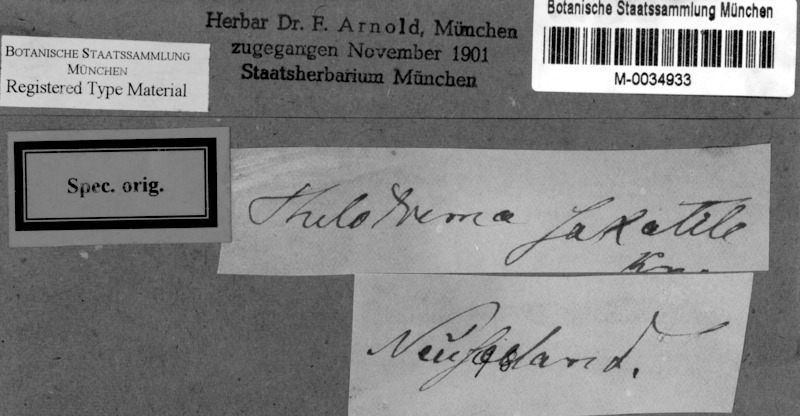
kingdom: Fungi
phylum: Ascomycota
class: Lecanoromycetes
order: Ostropales
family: Graphidaceae
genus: Thelotrema
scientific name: Thelotrema monosporum
